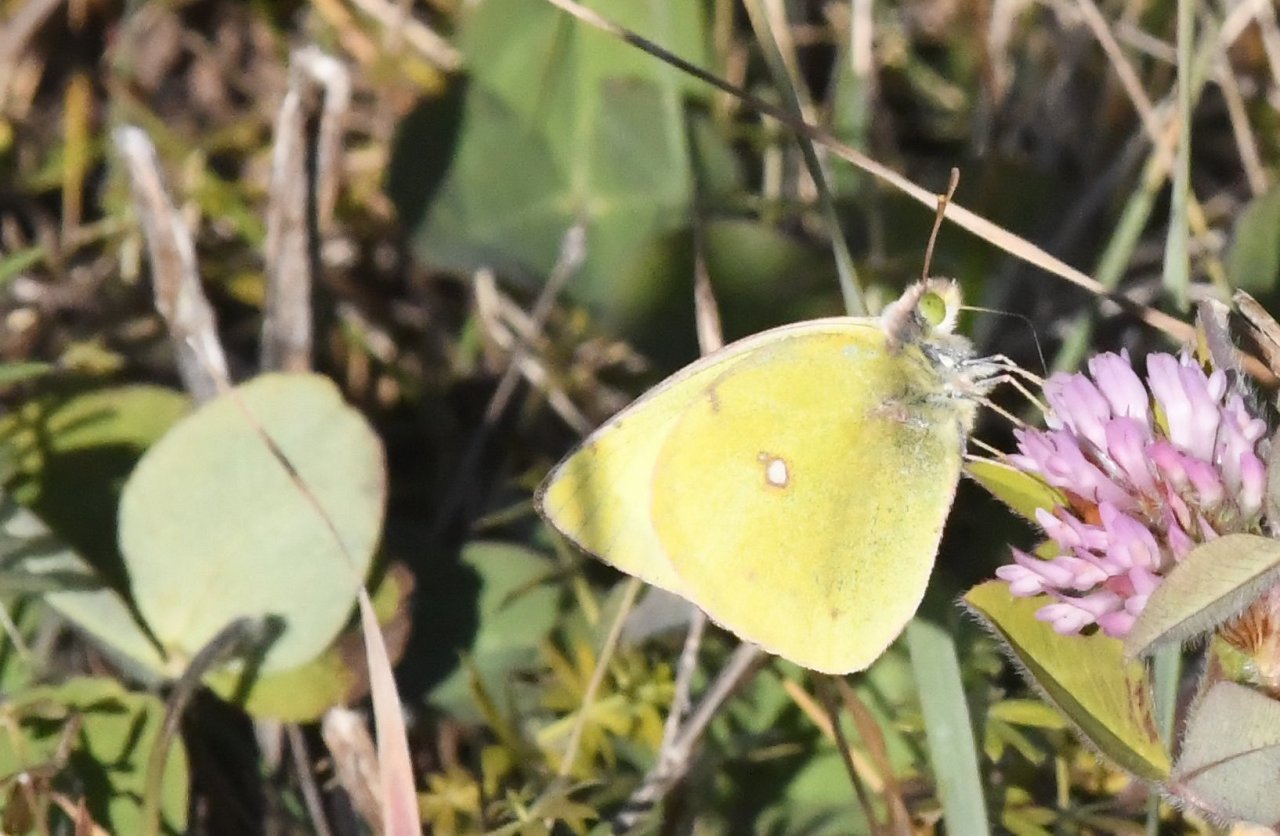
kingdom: Animalia
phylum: Arthropoda
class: Insecta
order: Lepidoptera
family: Pieridae
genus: Colias
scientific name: Colias
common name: Clouded Yellows
